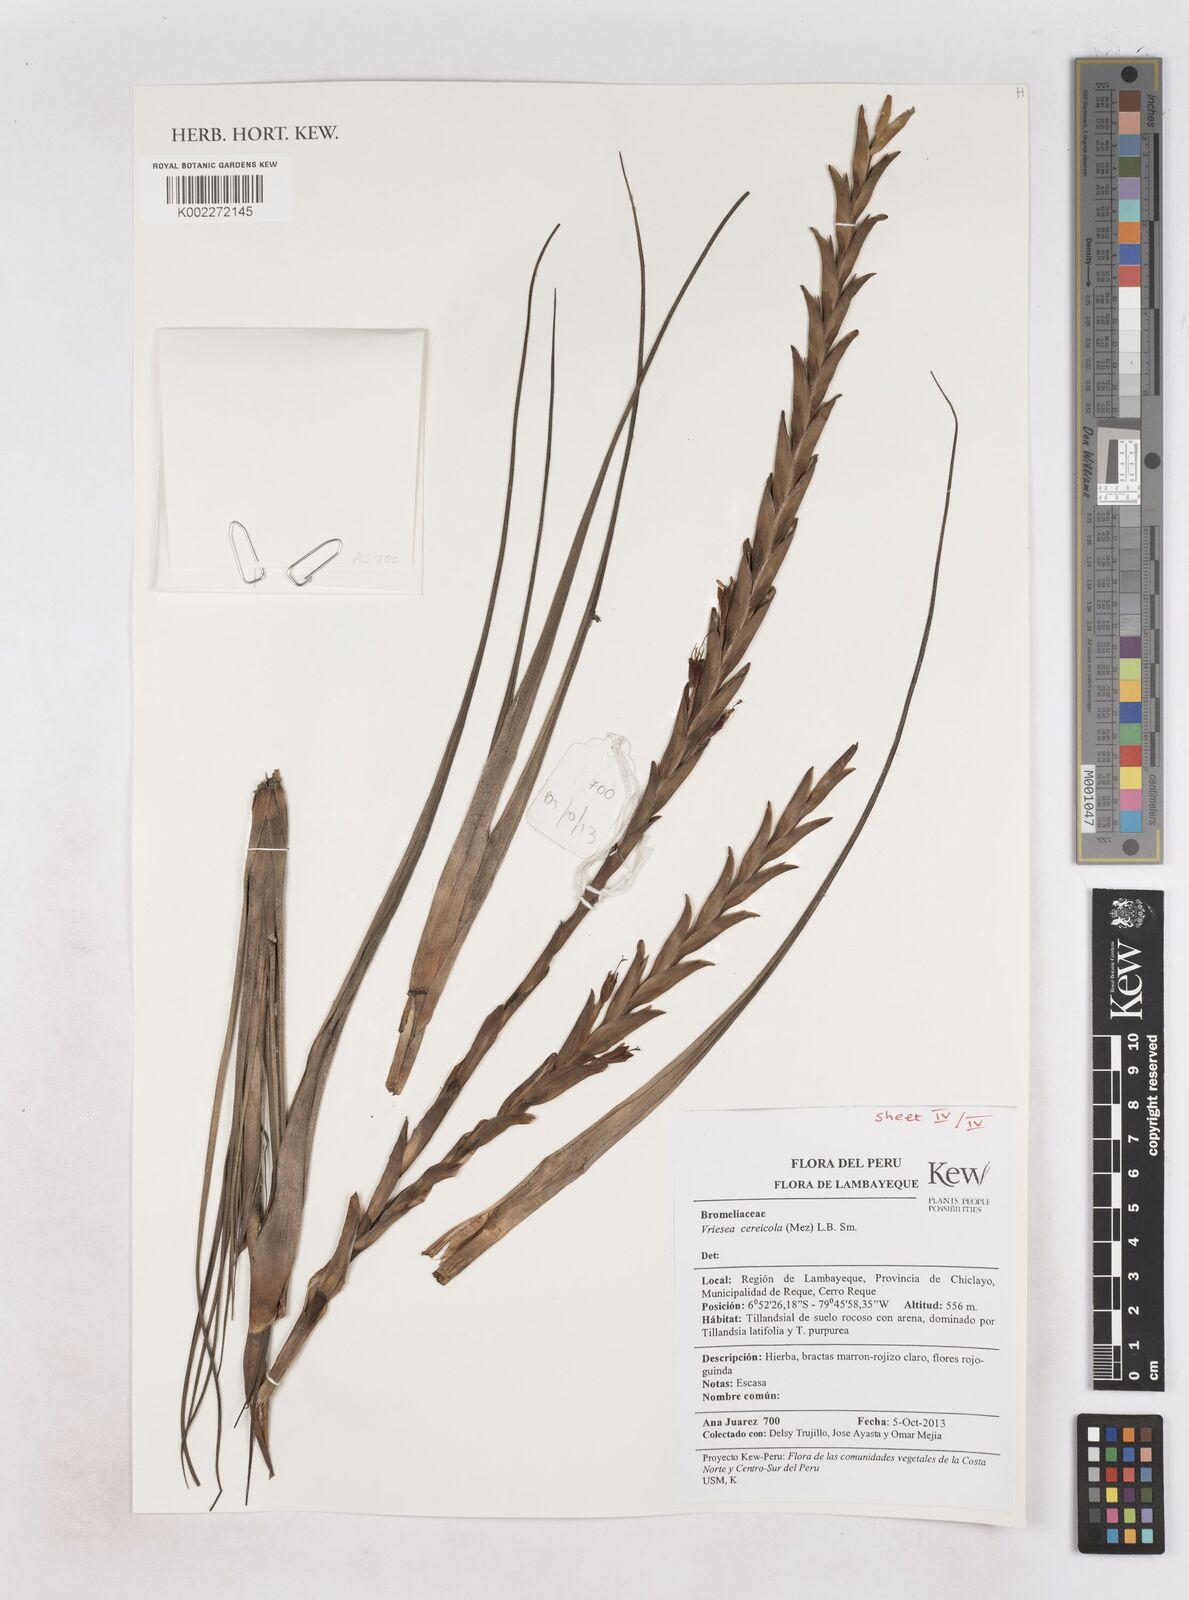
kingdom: Plantae
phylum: Tracheophyta
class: Liliopsida
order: Poales
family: Bromeliaceae
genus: Tillandsia
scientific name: Tillandsia barclayana
